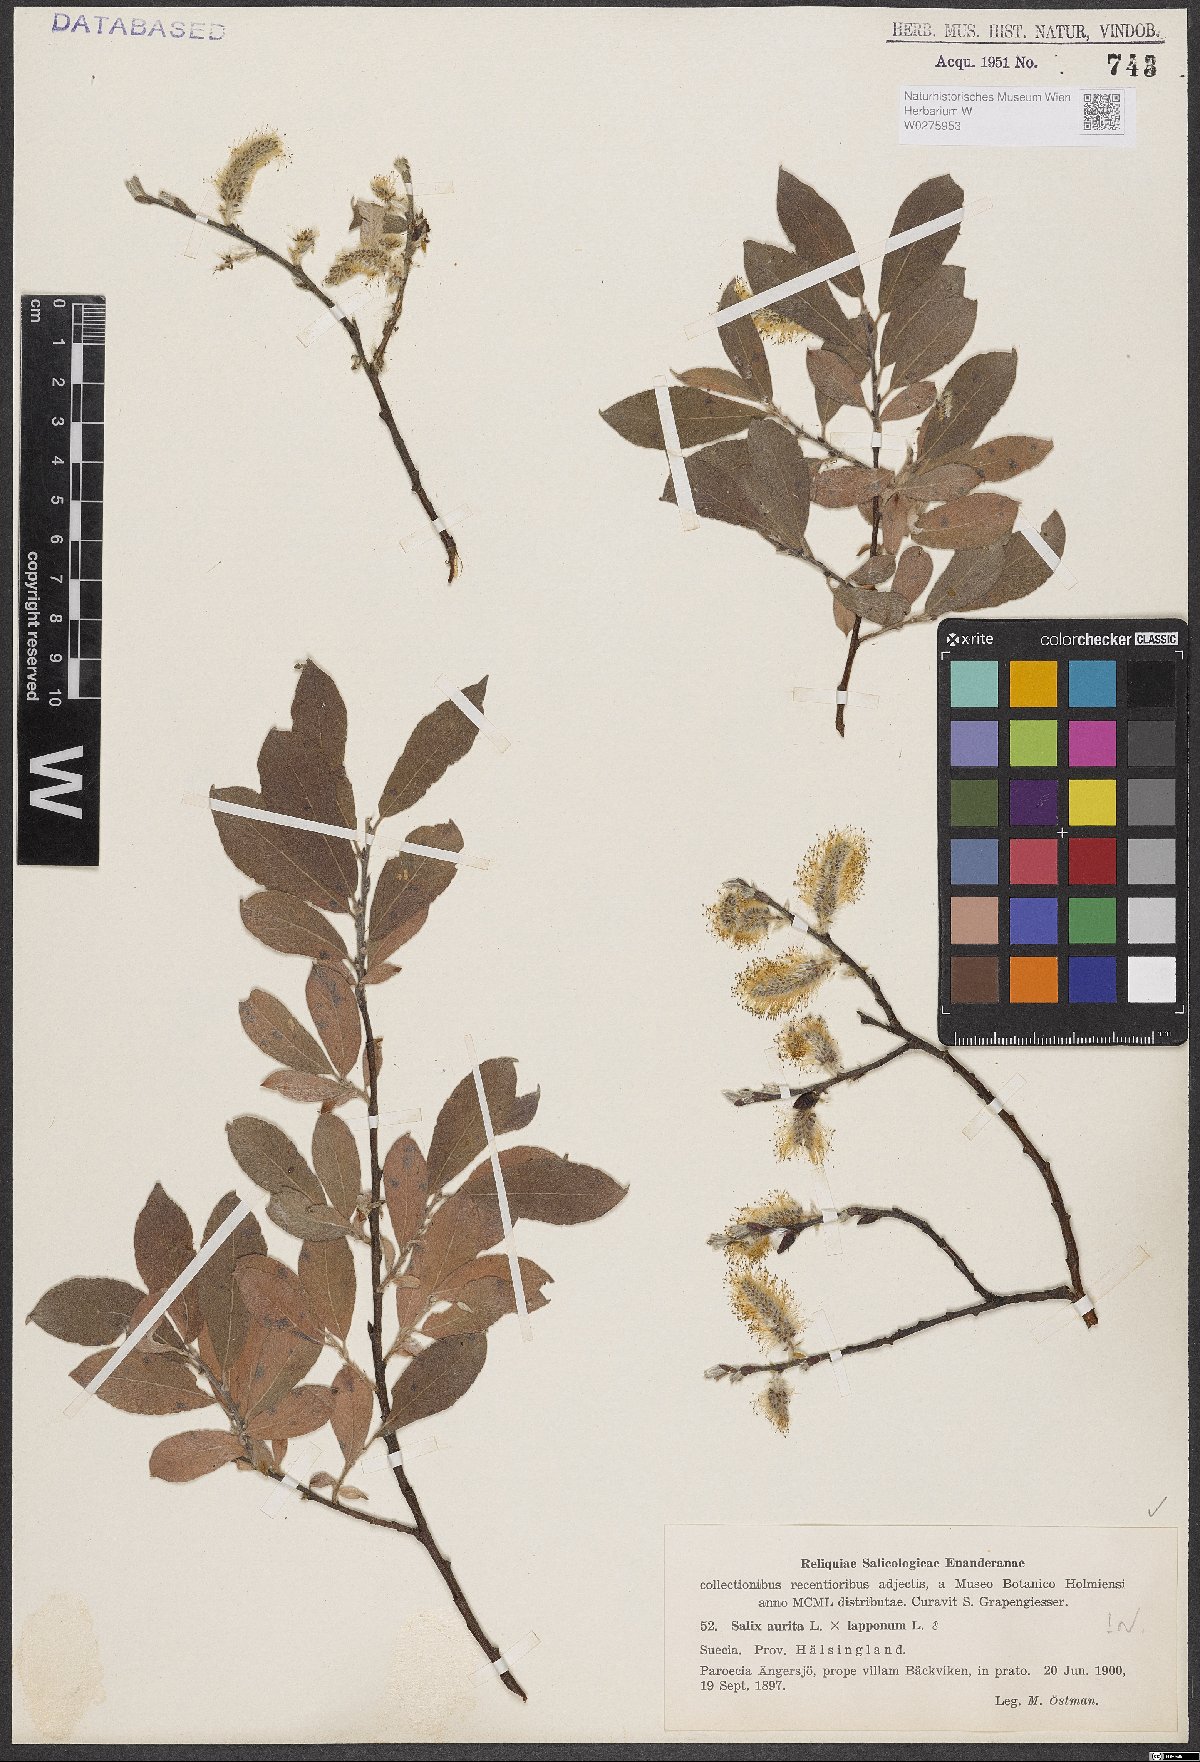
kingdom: Plantae
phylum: Tracheophyta
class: Magnoliopsida
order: Malpighiales
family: Salicaceae
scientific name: Salicaceae
